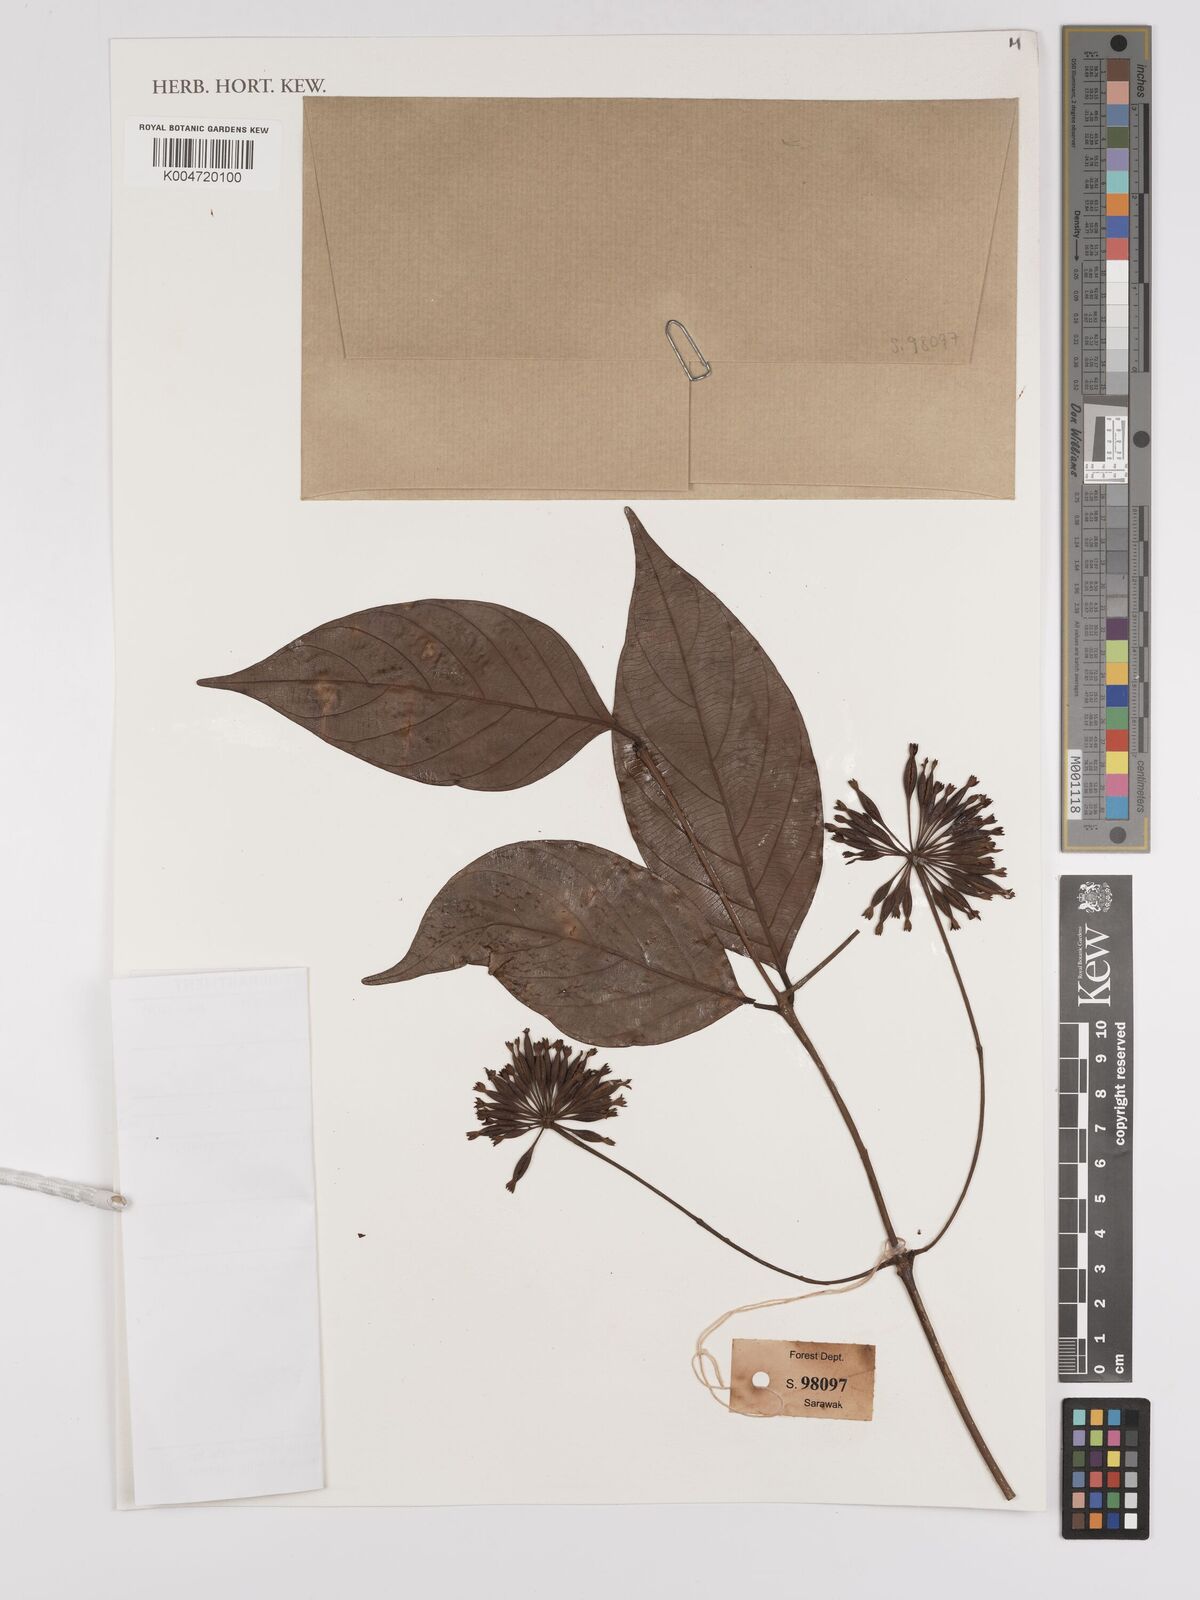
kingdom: Plantae
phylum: Tracheophyta
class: Magnoliopsida
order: Gentianales
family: Rubiaceae
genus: Uncaria
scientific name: Uncaria
